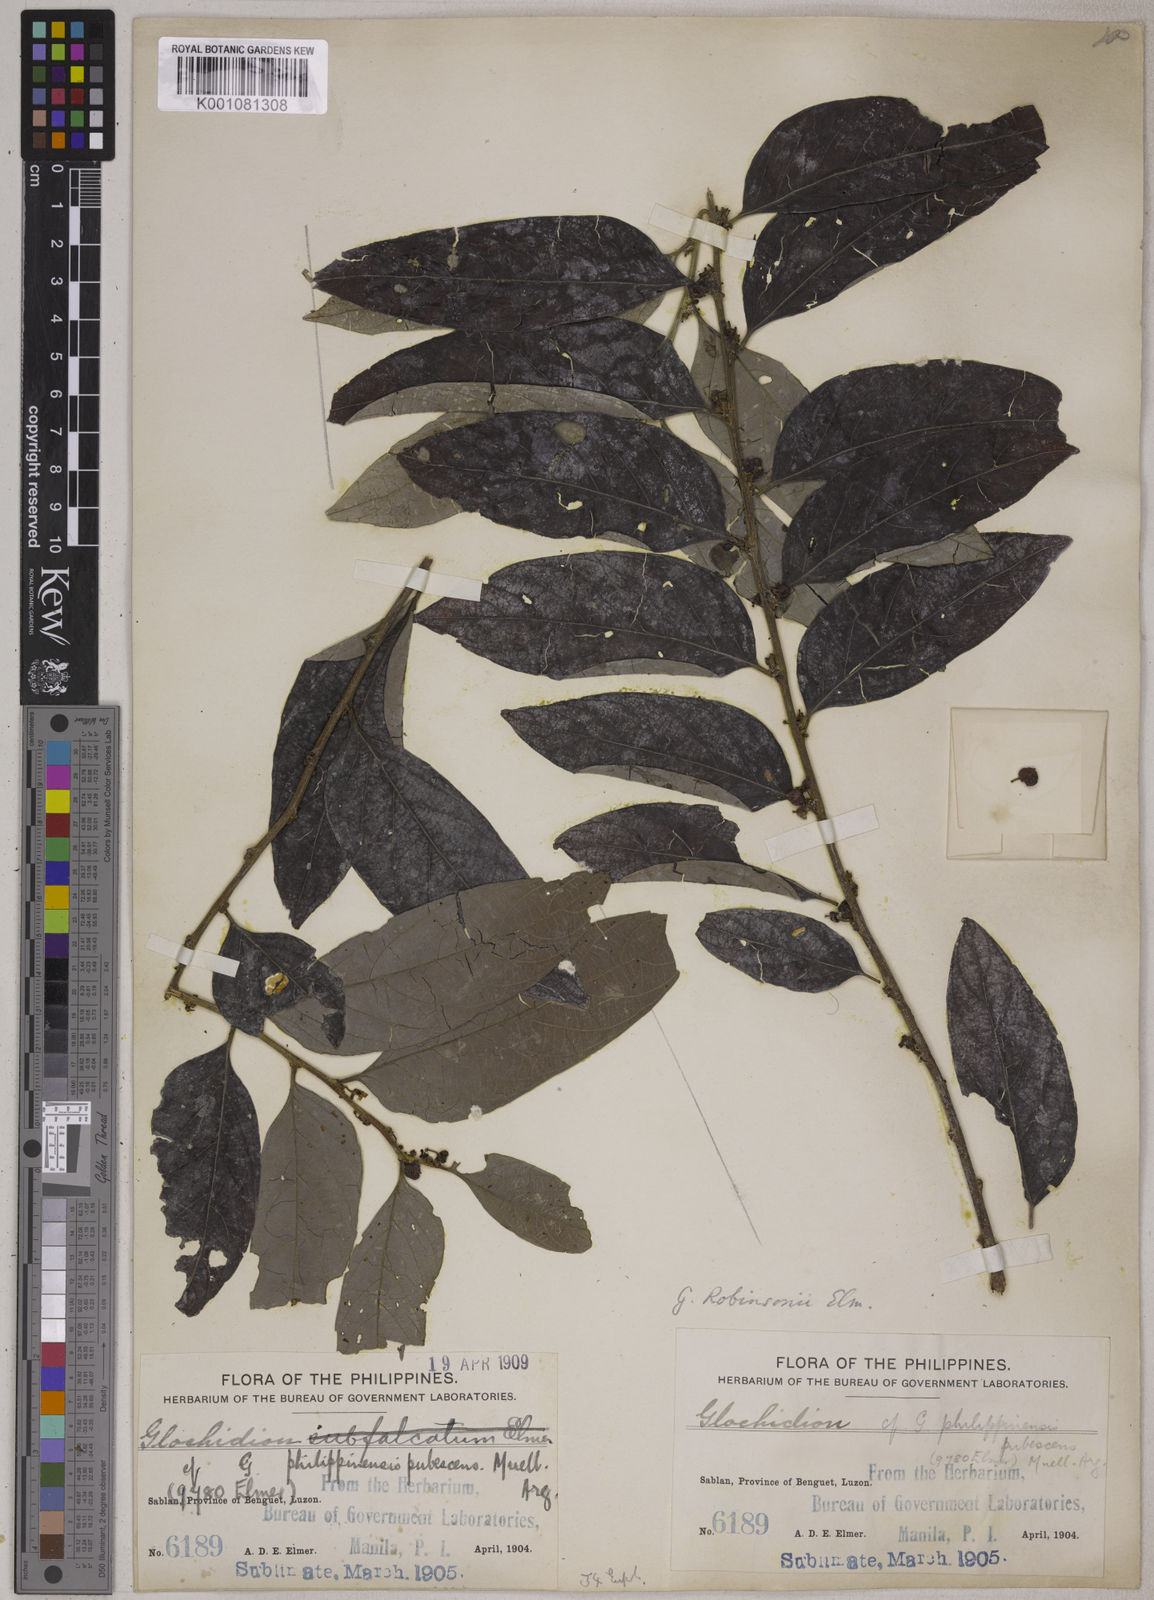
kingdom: Plantae
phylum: Tracheophyta
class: Magnoliopsida
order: Malpighiales
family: Phyllanthaceae
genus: Glochidion
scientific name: Glochidion robinsonii
